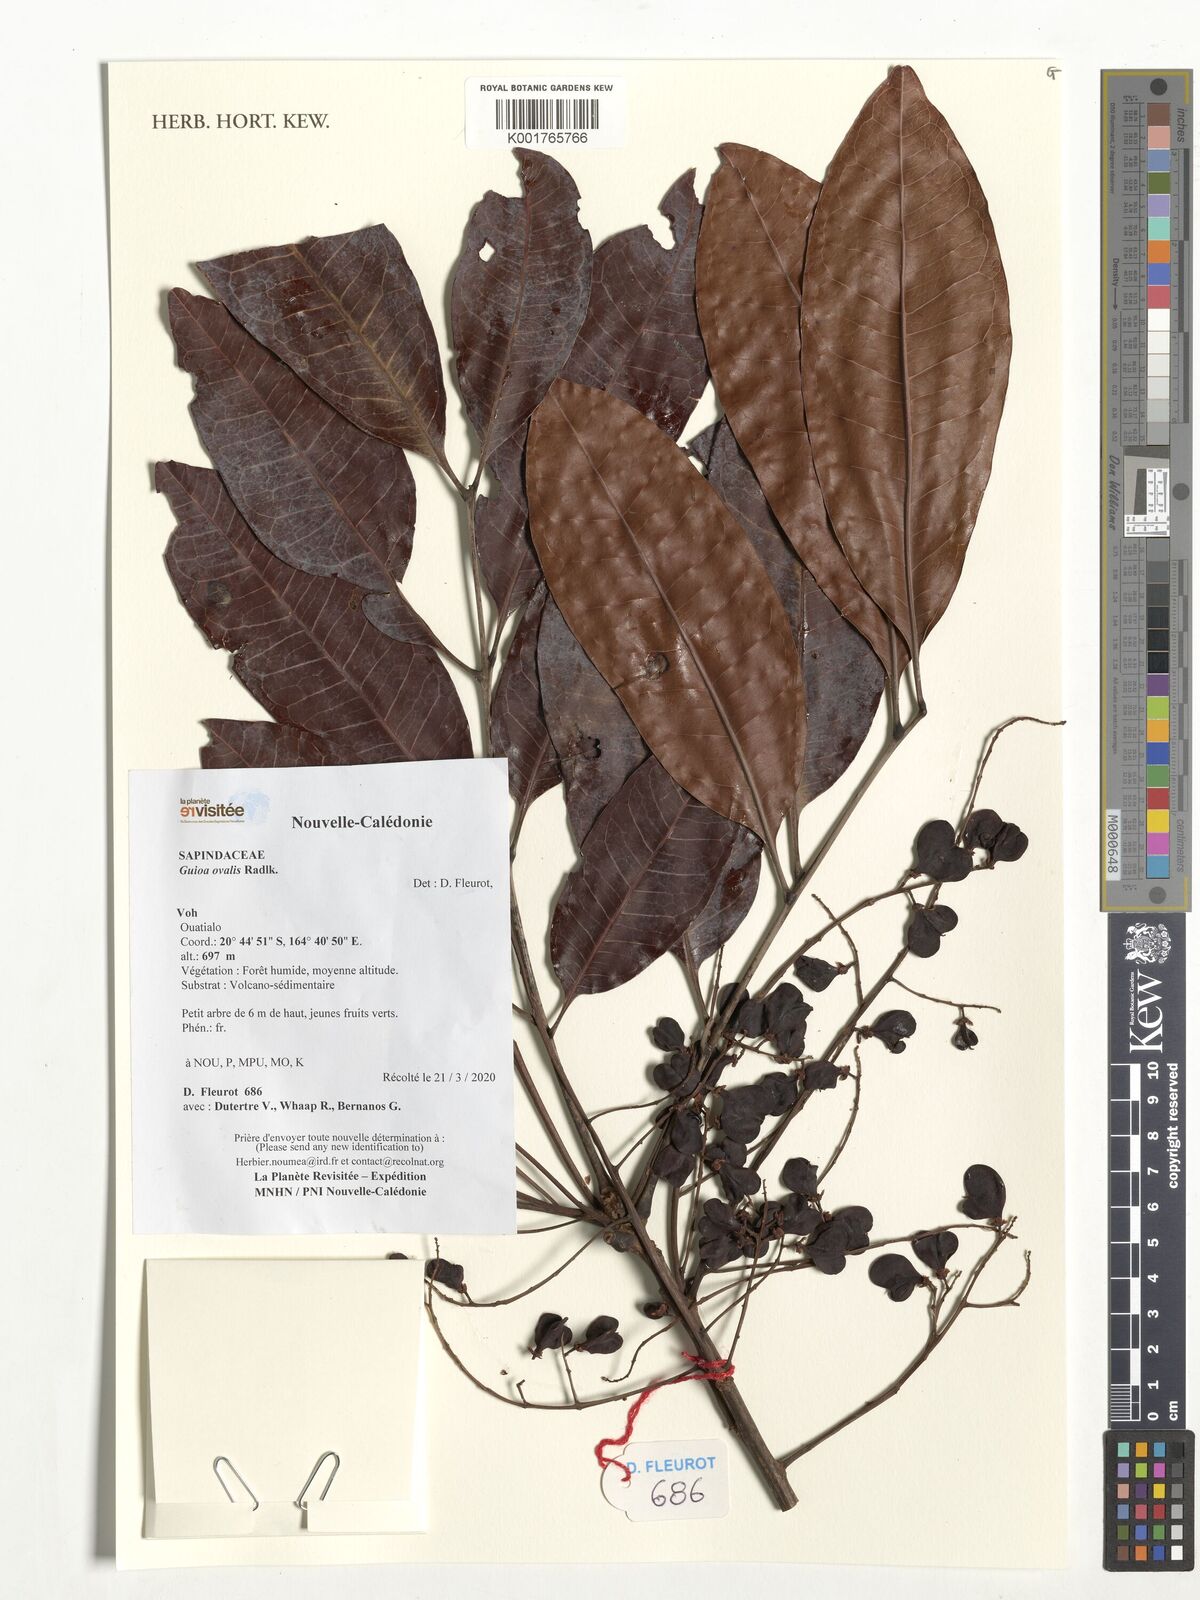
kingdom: Plantae
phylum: Tracheophyta
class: Magnoliopsida
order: Sapindales
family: Sapindaceae
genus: Guioa
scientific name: Guioa ovalis
